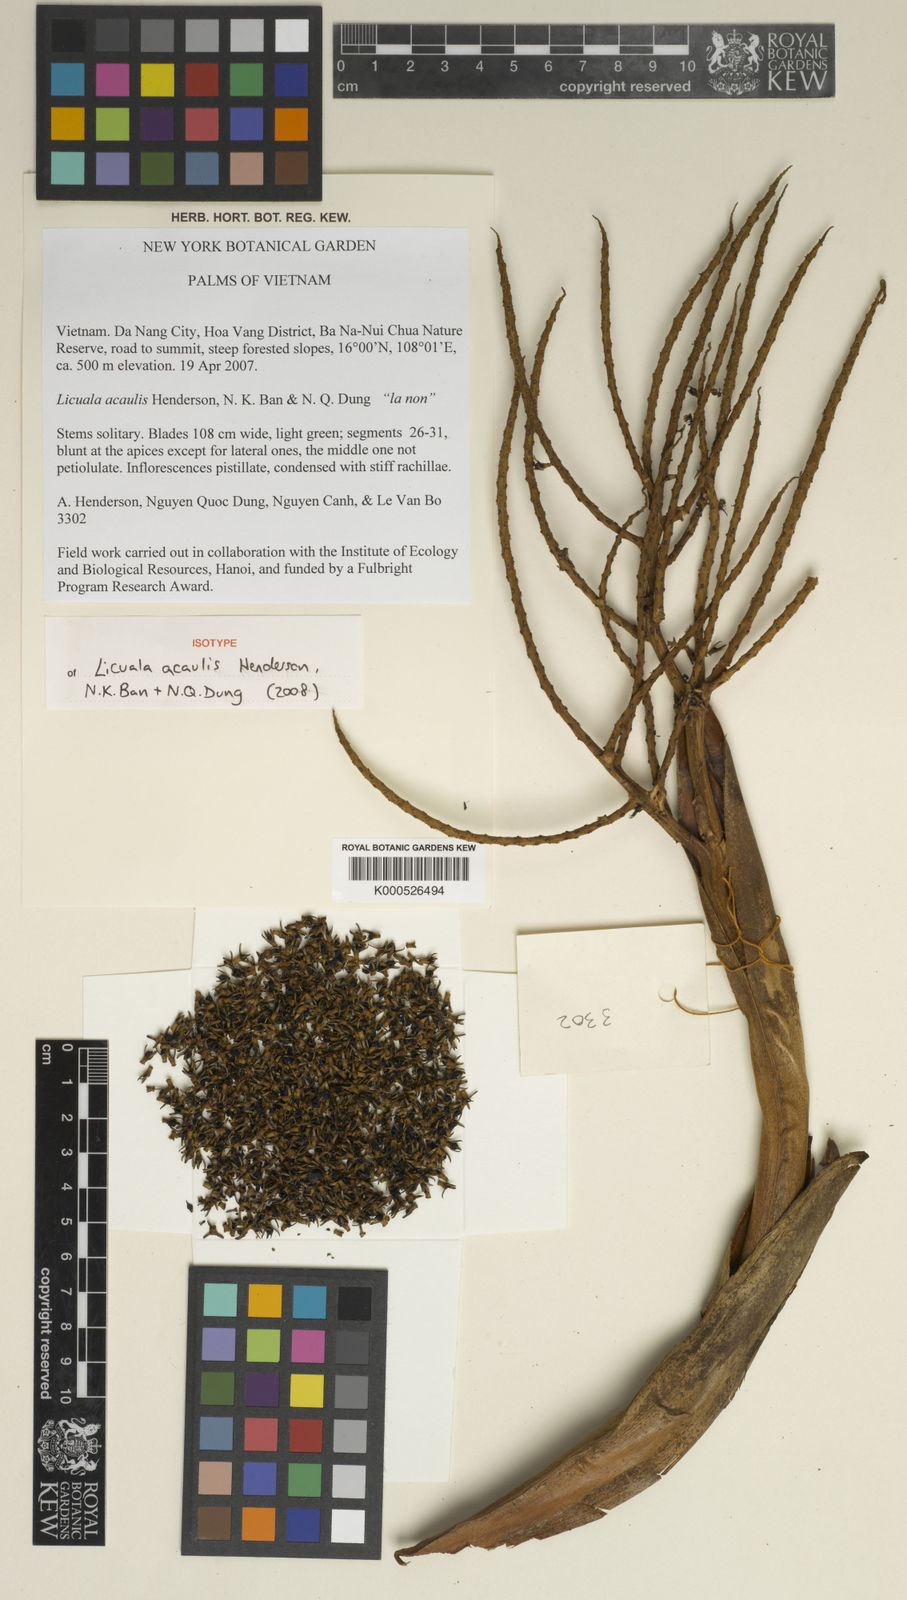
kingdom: Plantae
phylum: Tracheophyta
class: Liliopsida
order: Arecales
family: Arecaceae
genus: Lanonia
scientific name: Lanonia
